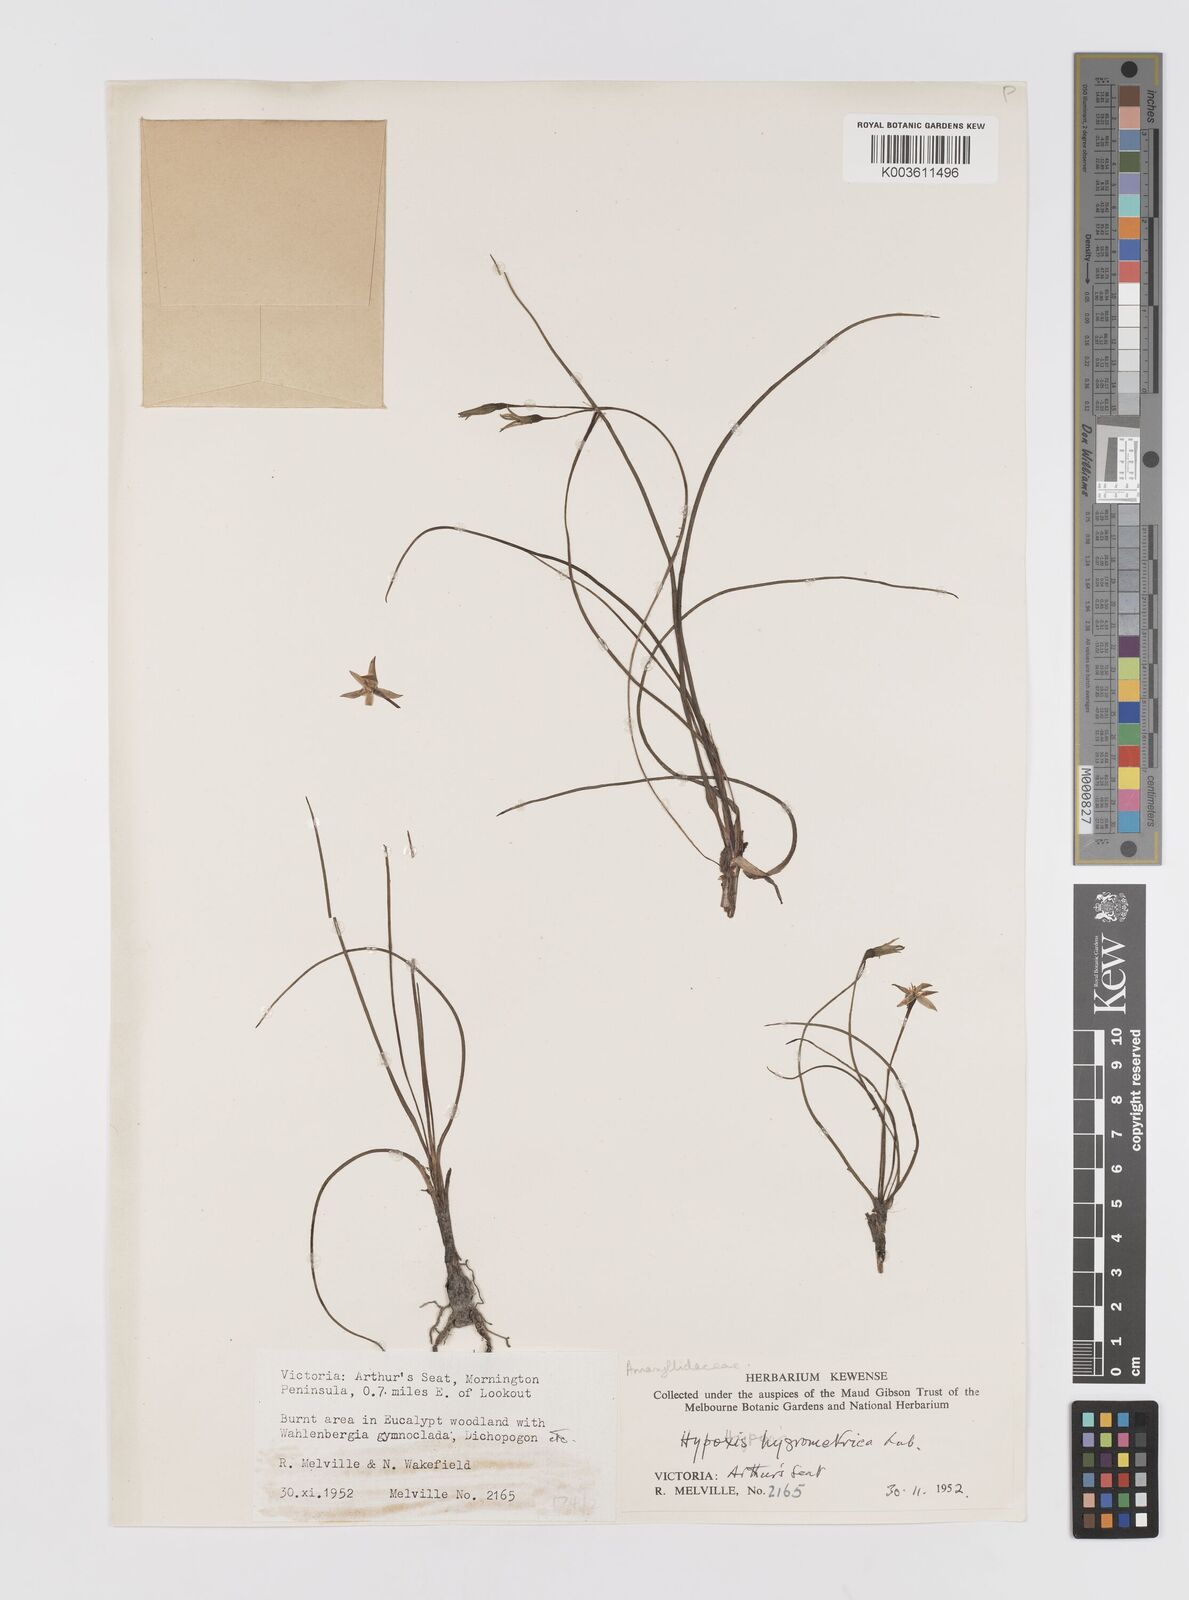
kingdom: Plantae
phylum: Tracheophyta
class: Liliopsida
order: Asparagales
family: Hypoxidaceae
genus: Hypoxis
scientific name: Hypoxis hygrometrica
